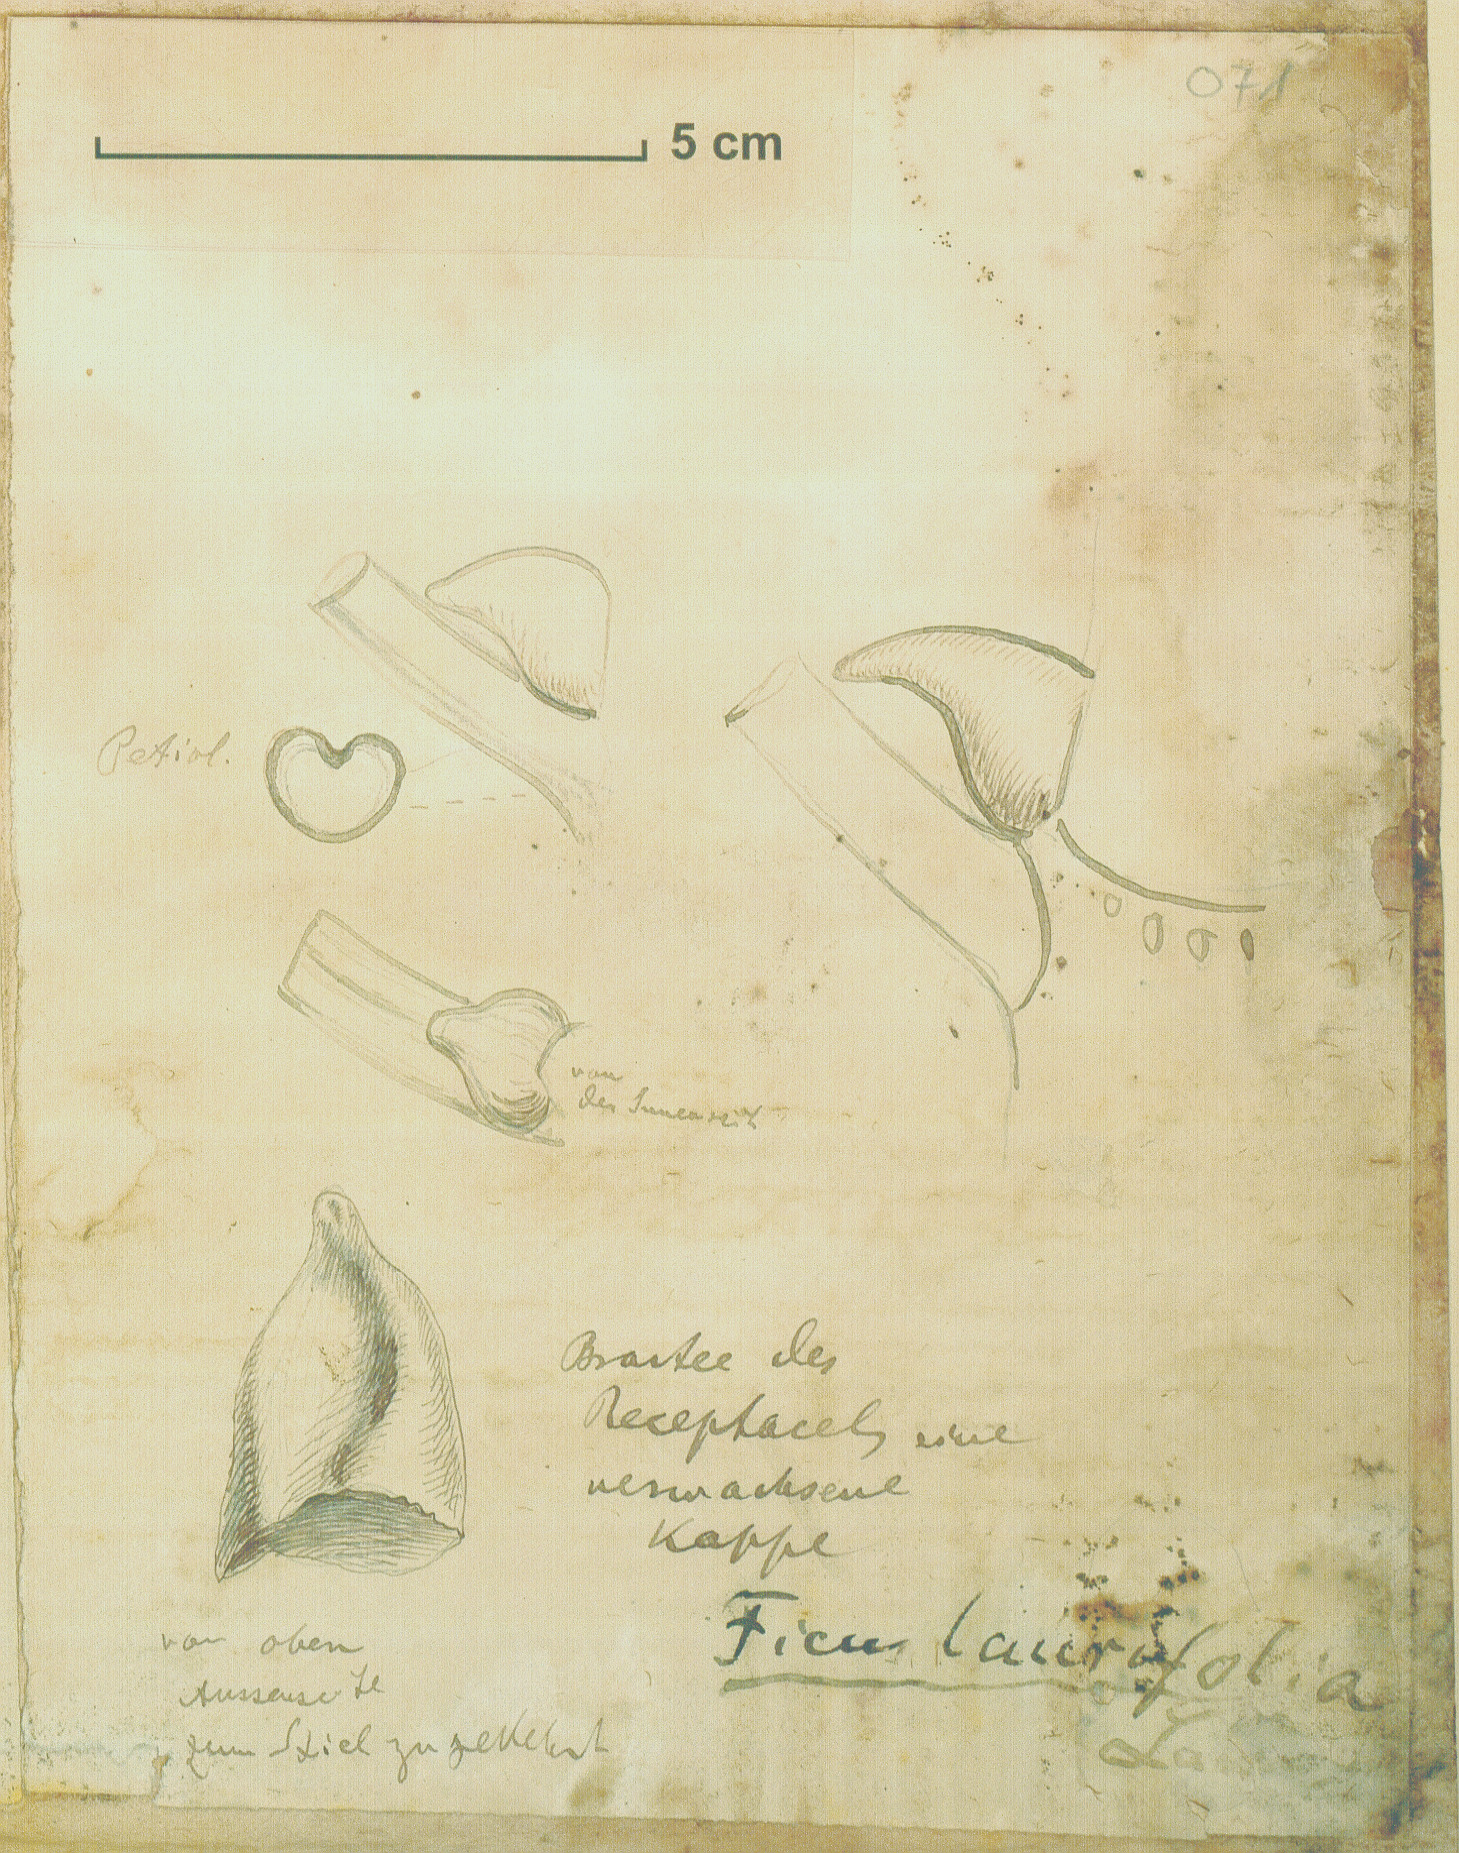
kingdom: Plantae
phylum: Tracheophyta
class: Magnoliopsida
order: Rosales
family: Moraceae
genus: Ficus
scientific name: Ficus maxima
